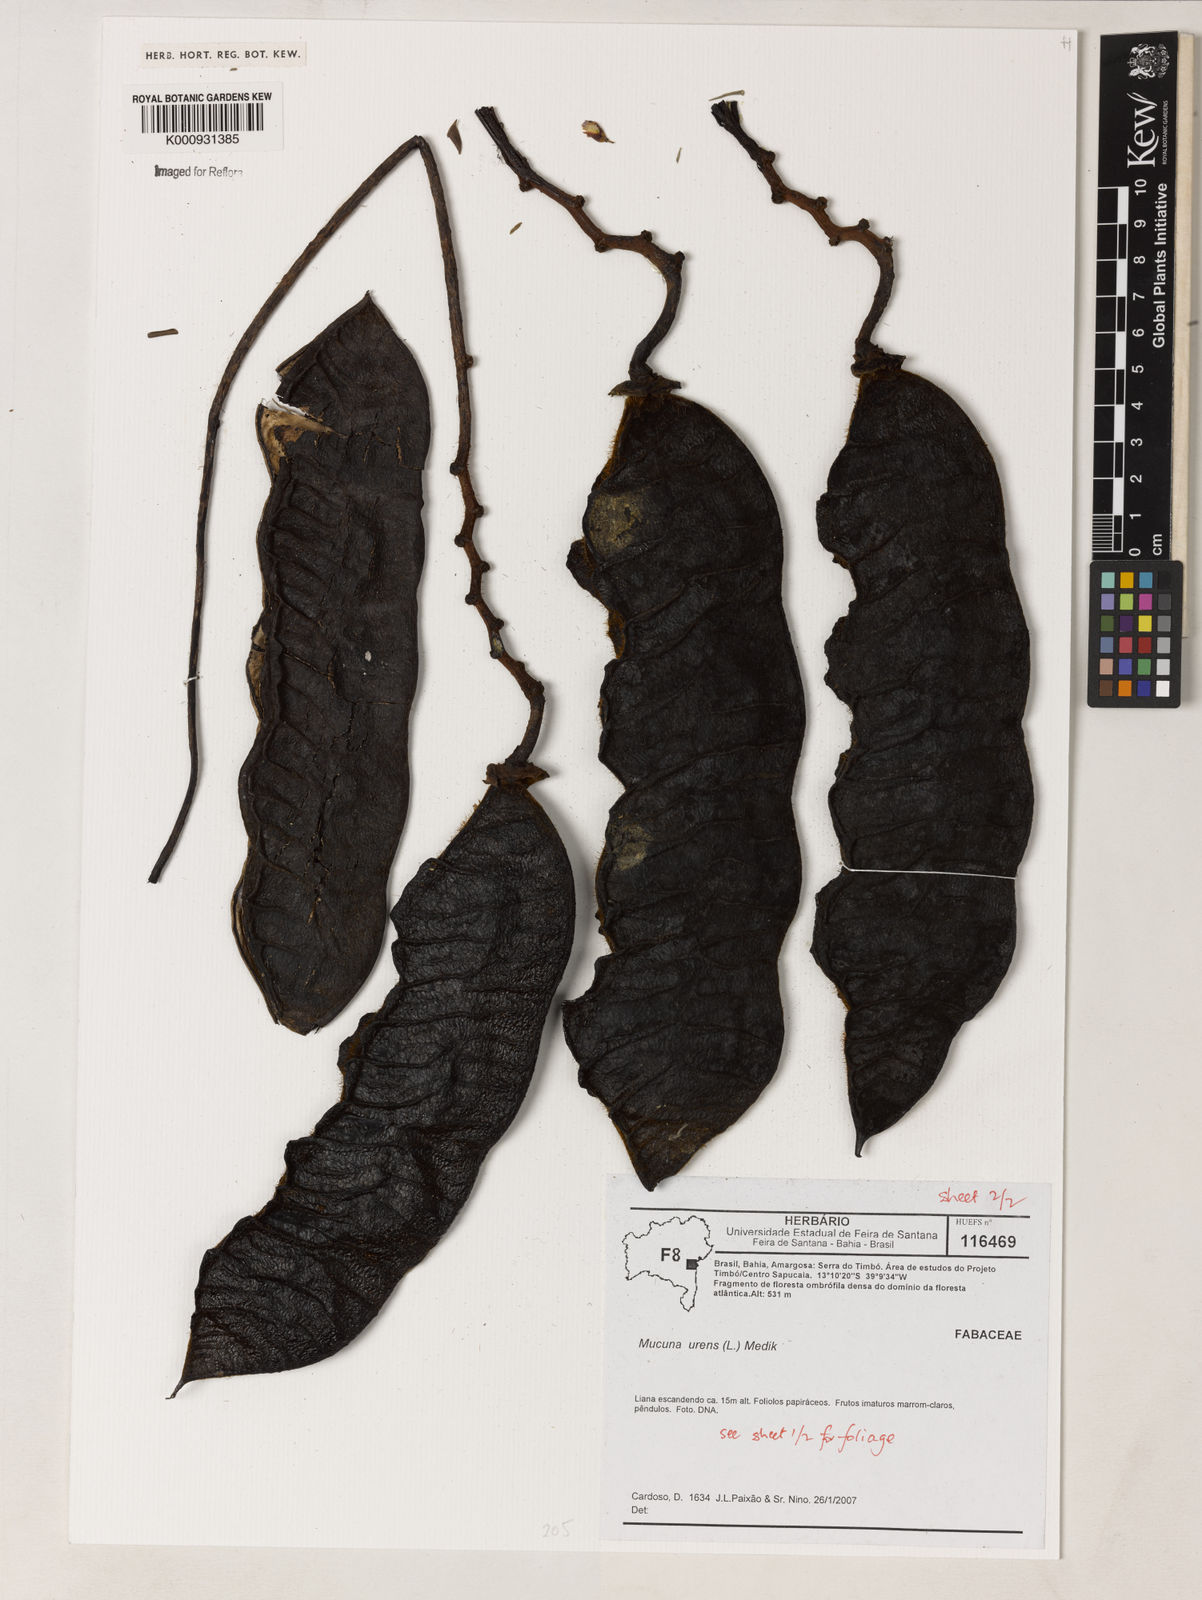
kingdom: Plantae
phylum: Tracheophyta
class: Magnoliopsida
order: Fabales
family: Fabaceae
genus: Mucuna
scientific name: Mucuna urens
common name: Red hamburger bean
